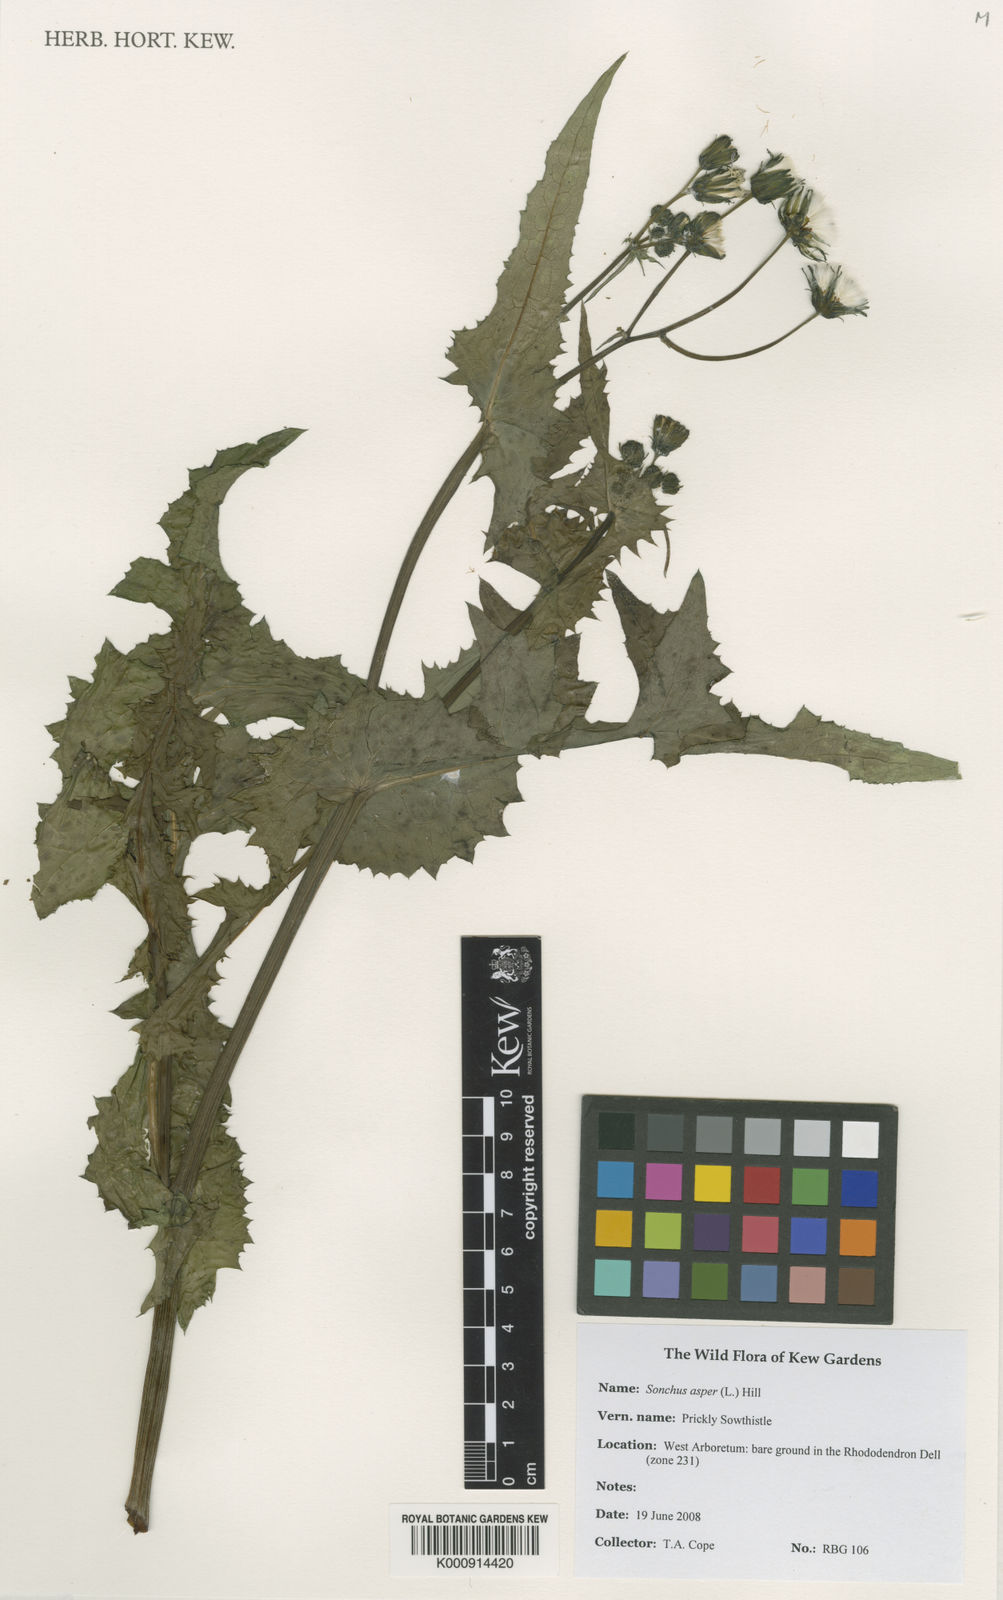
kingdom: Plantae
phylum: Tracheophyta
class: Magnoliopsida
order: Asterales
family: Asteraceae
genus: Sonchus
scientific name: Sonchus asper
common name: Prickly sow-thistle
